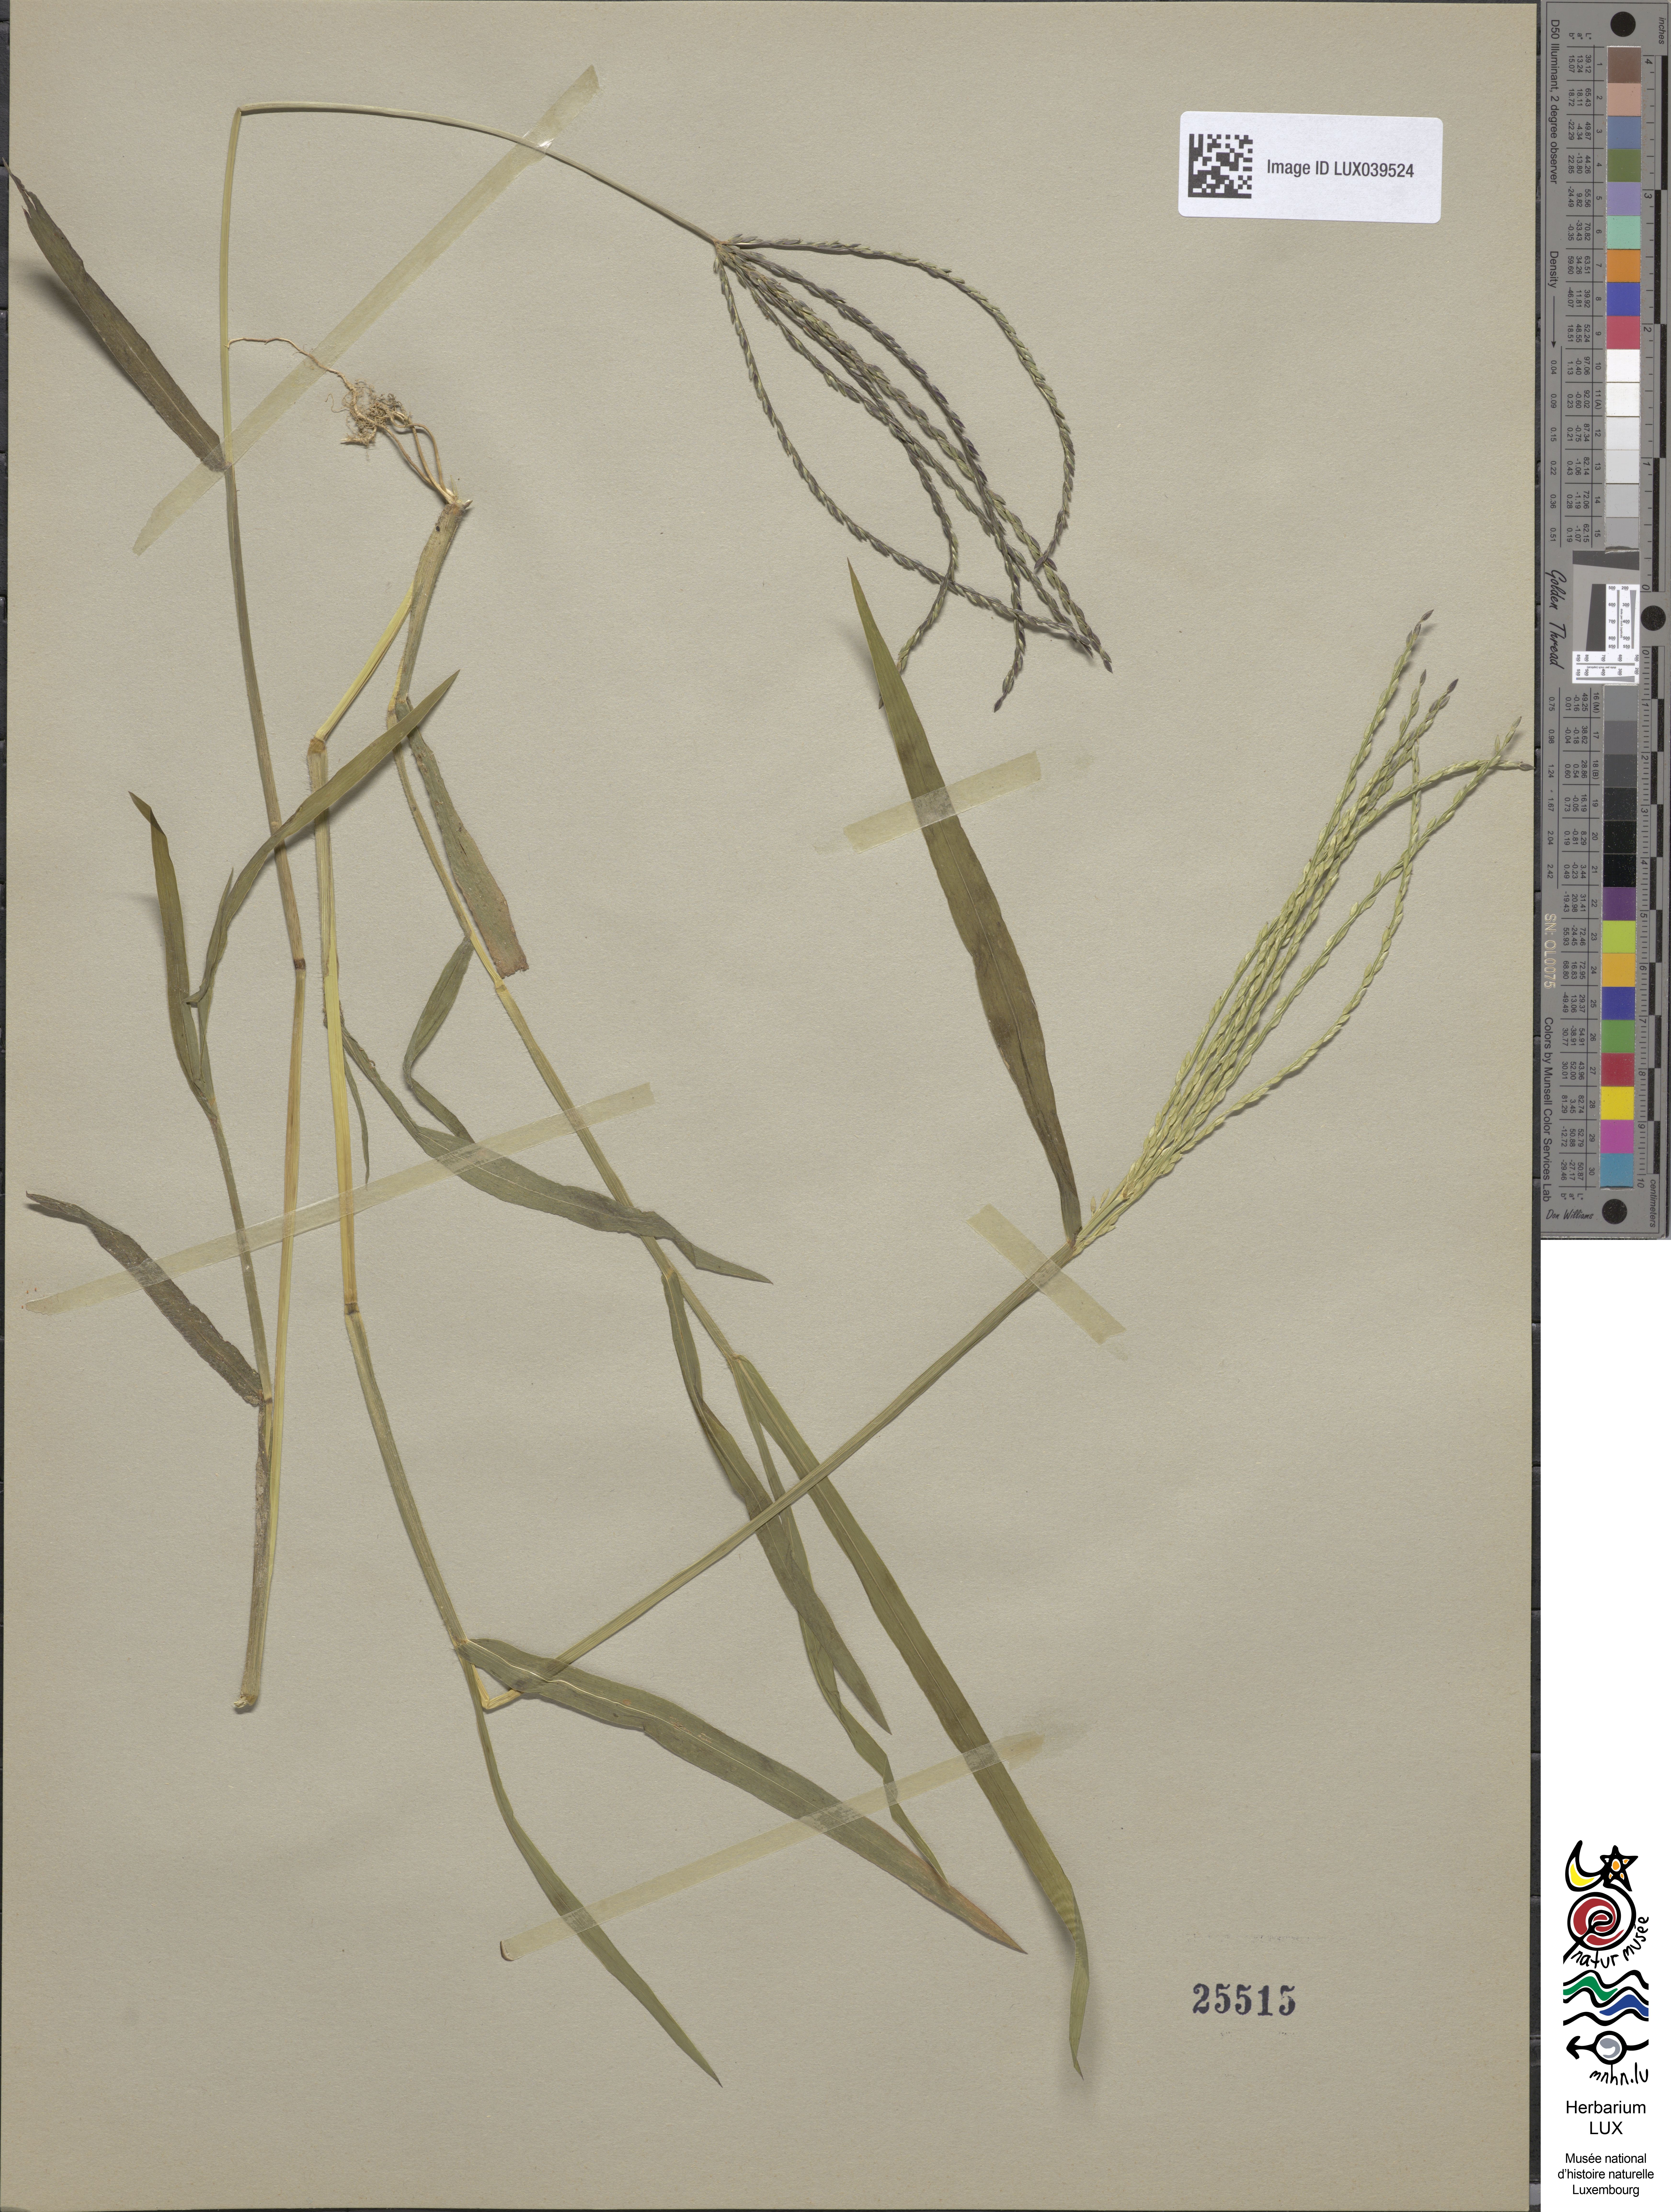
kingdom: Plantae
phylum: Tracheophyta
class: Liliopsida
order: Poales
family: Poaceae
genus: Digitaria
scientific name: Digitaria sanguinalis
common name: Hairy crabgrass
